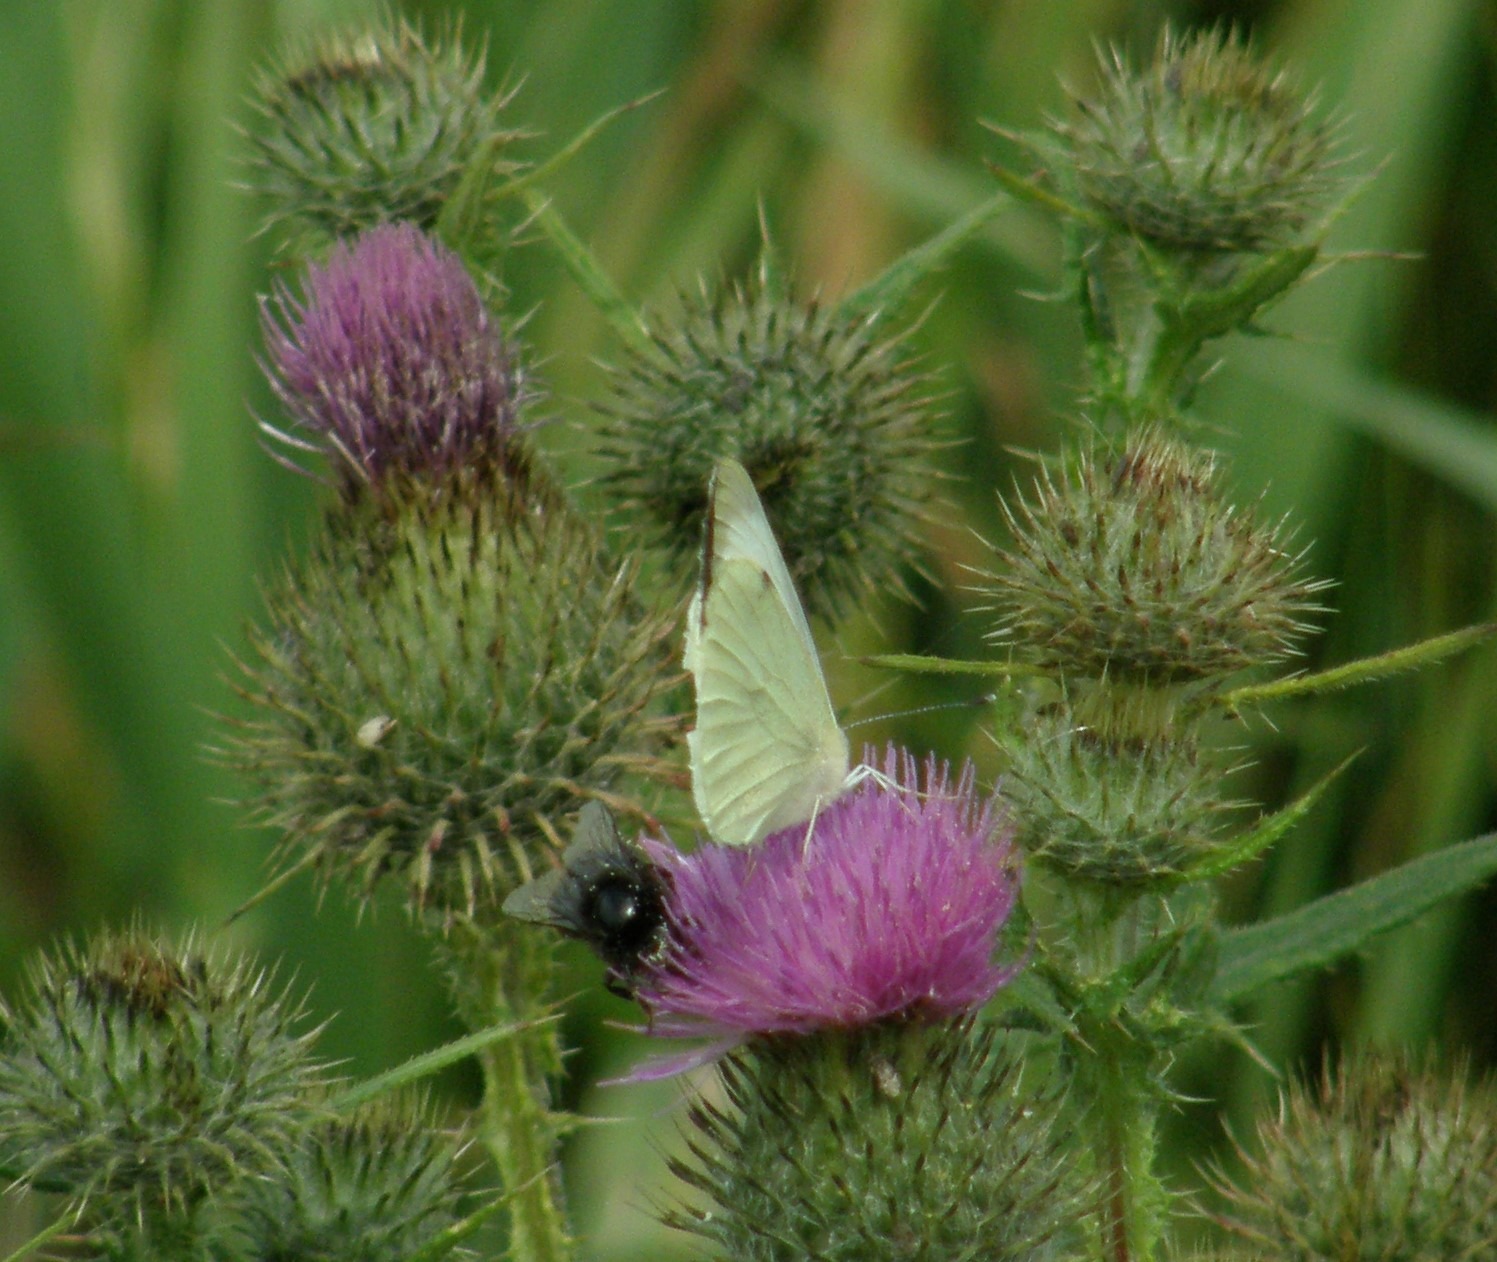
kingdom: Animalia
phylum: Arthropoda
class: Insecta
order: Lepidoptera
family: Pieridae
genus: Pieris
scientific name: Pieris brassicae
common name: Stor kålsommerfugl
